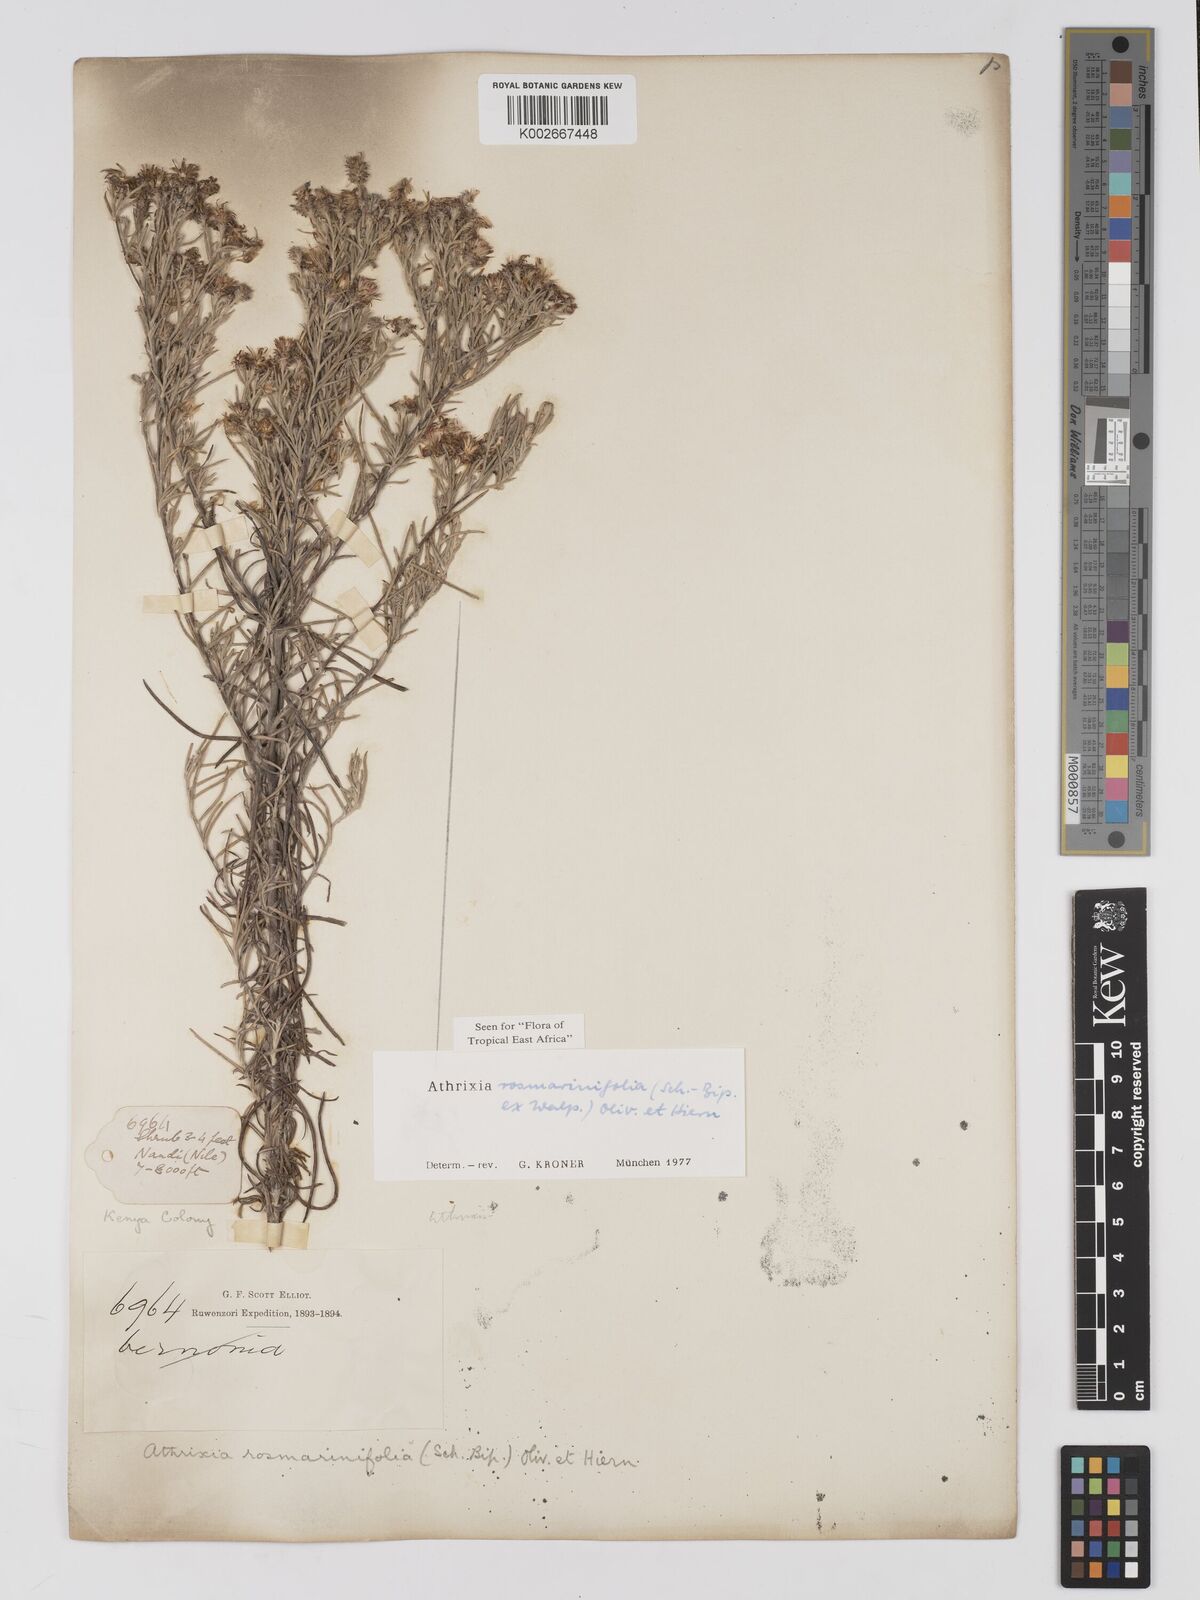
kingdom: Plantae
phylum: Tracheophyta
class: Magnoliopsida
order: Asterales
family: Asteraceae
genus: Athrixia
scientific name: Athrixia rosmarinifolia
